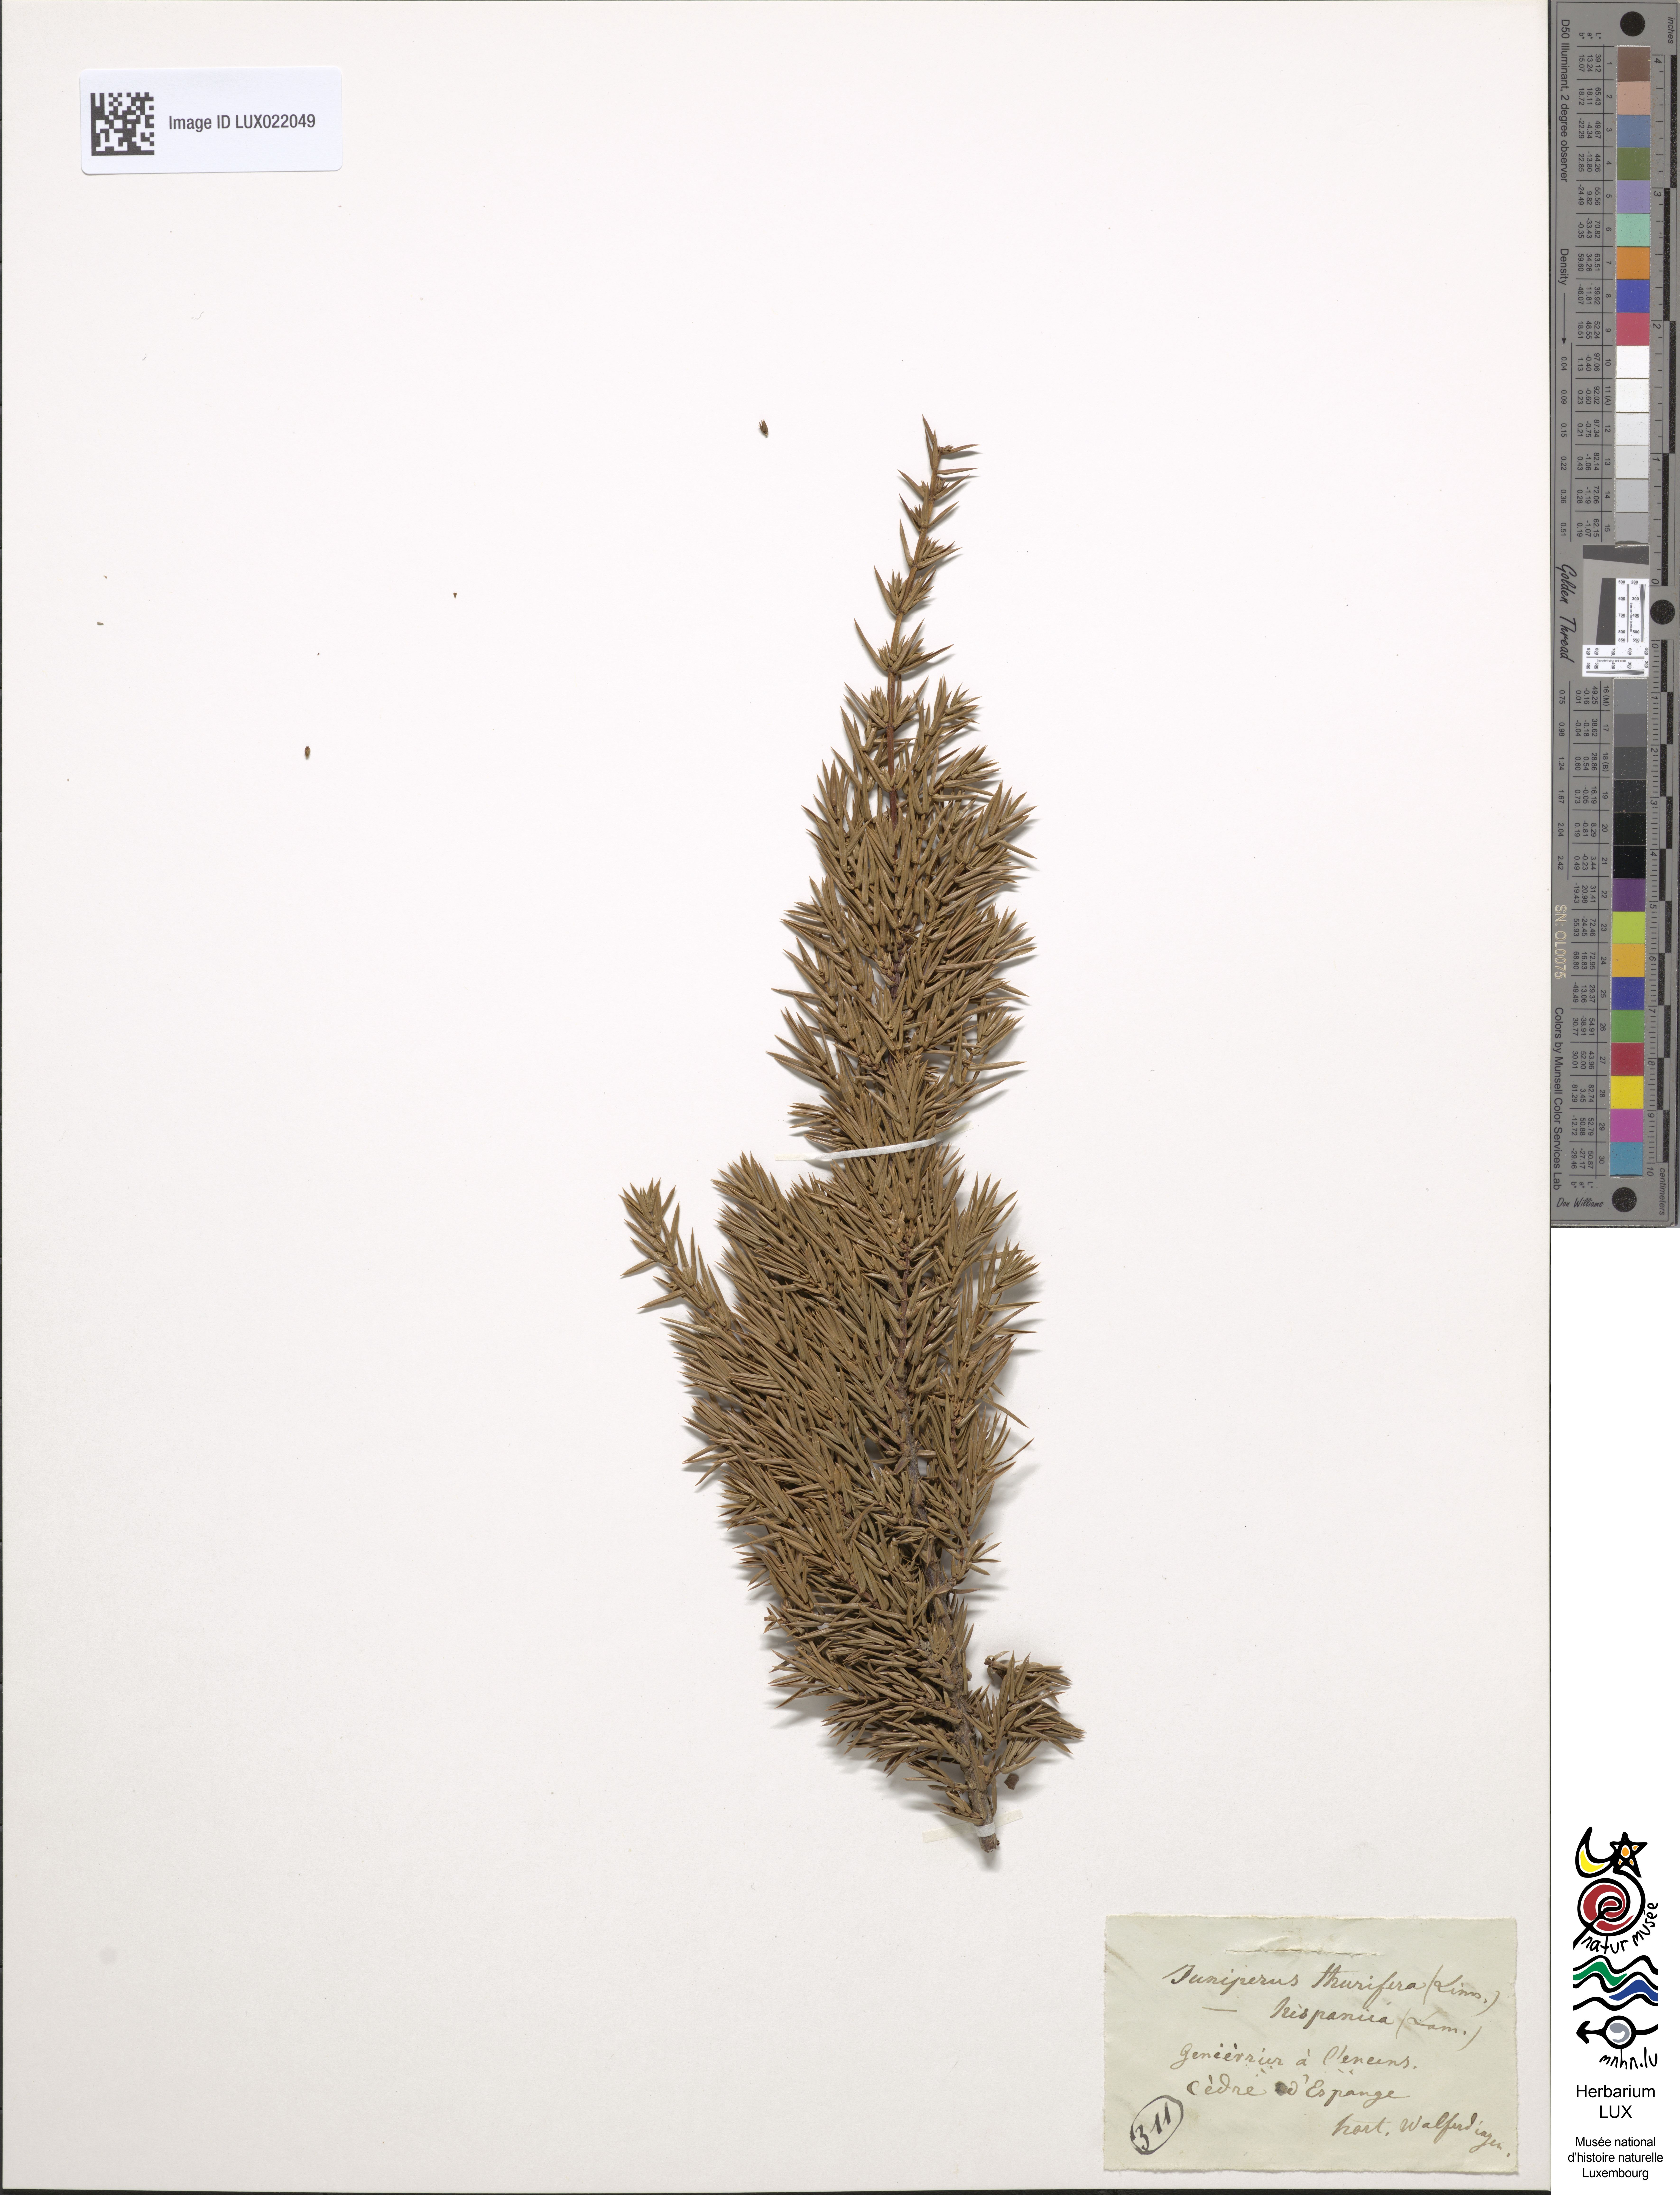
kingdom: Plantae
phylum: Tracheophyta
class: Pinopsida
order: Pinales
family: Cupressaceae
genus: Juniperus
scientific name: Juniperus thurifera
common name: Incense juniper
